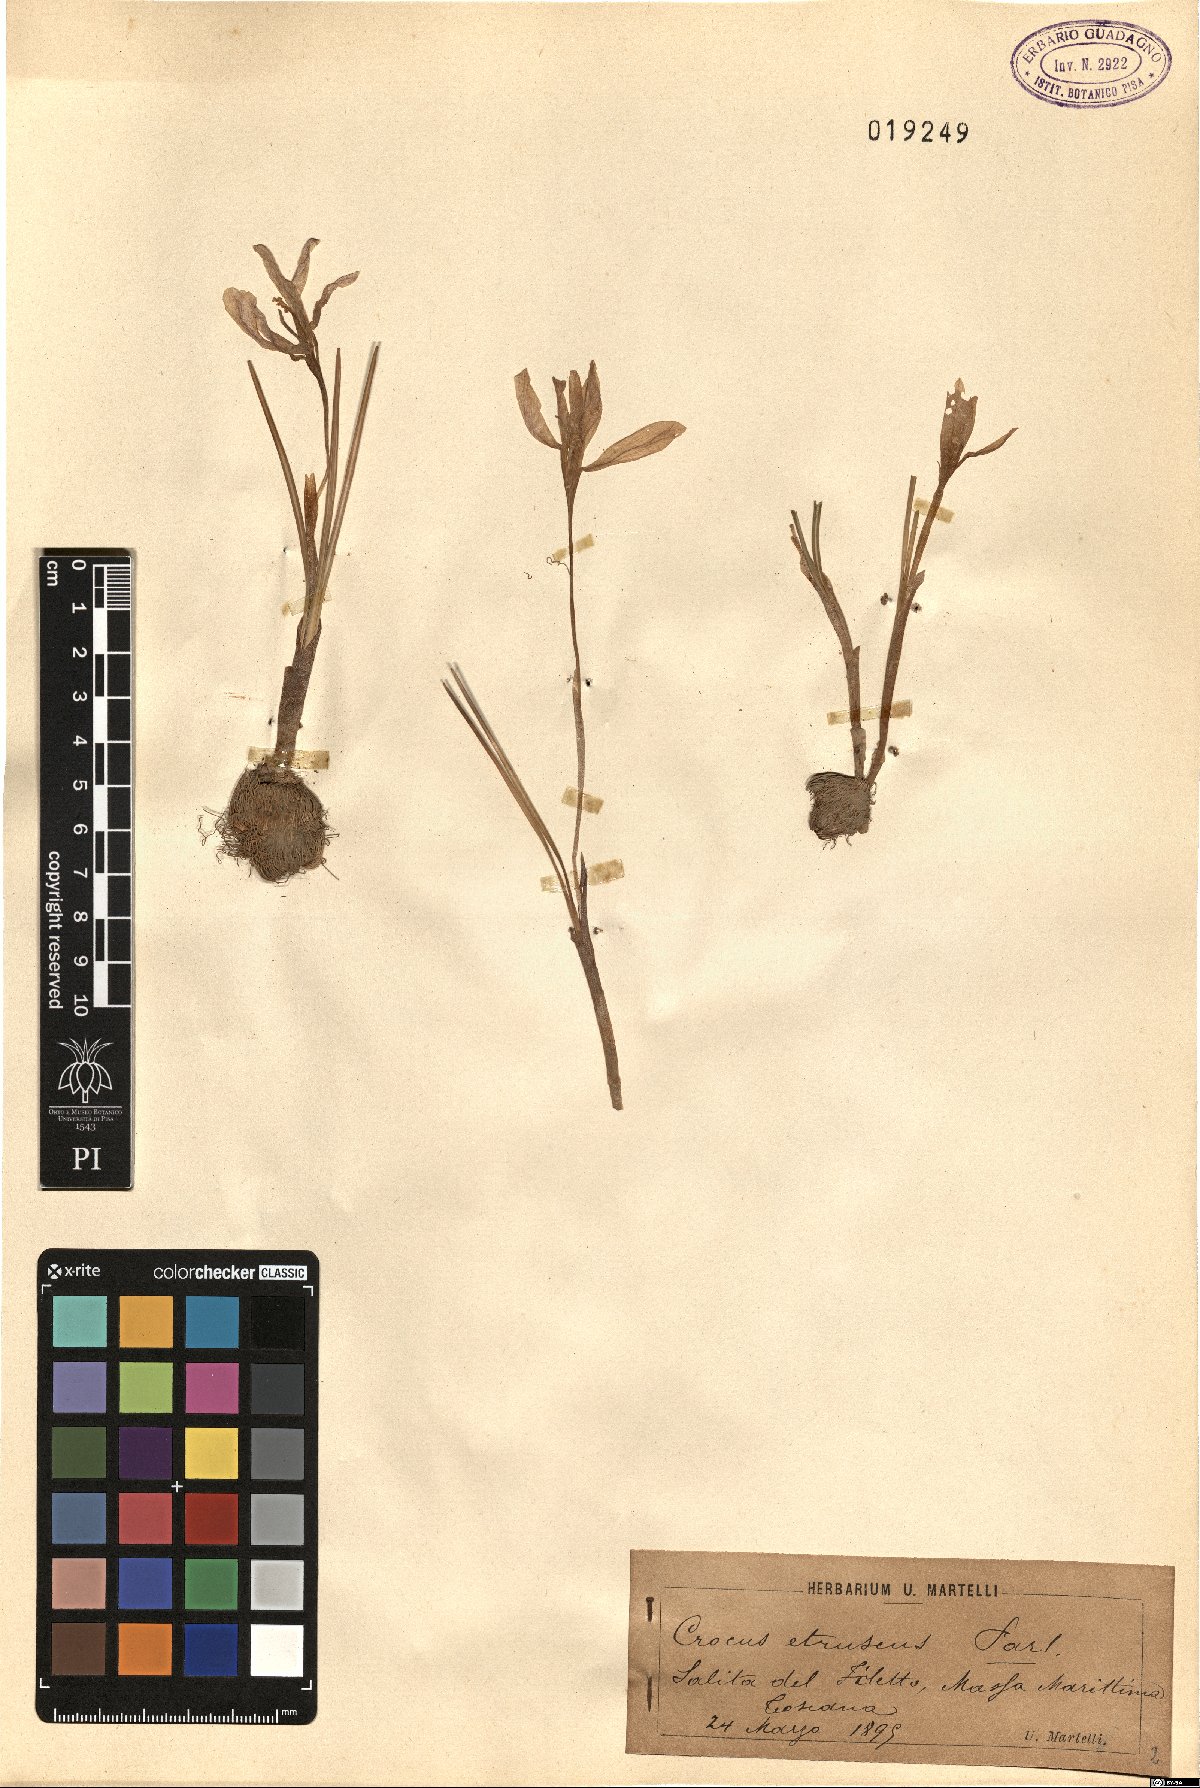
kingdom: Plantae
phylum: Tracheophyta
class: Liliopsida
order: Asparagales
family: Iridaceae
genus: Crocus
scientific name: Crocus etruscus
